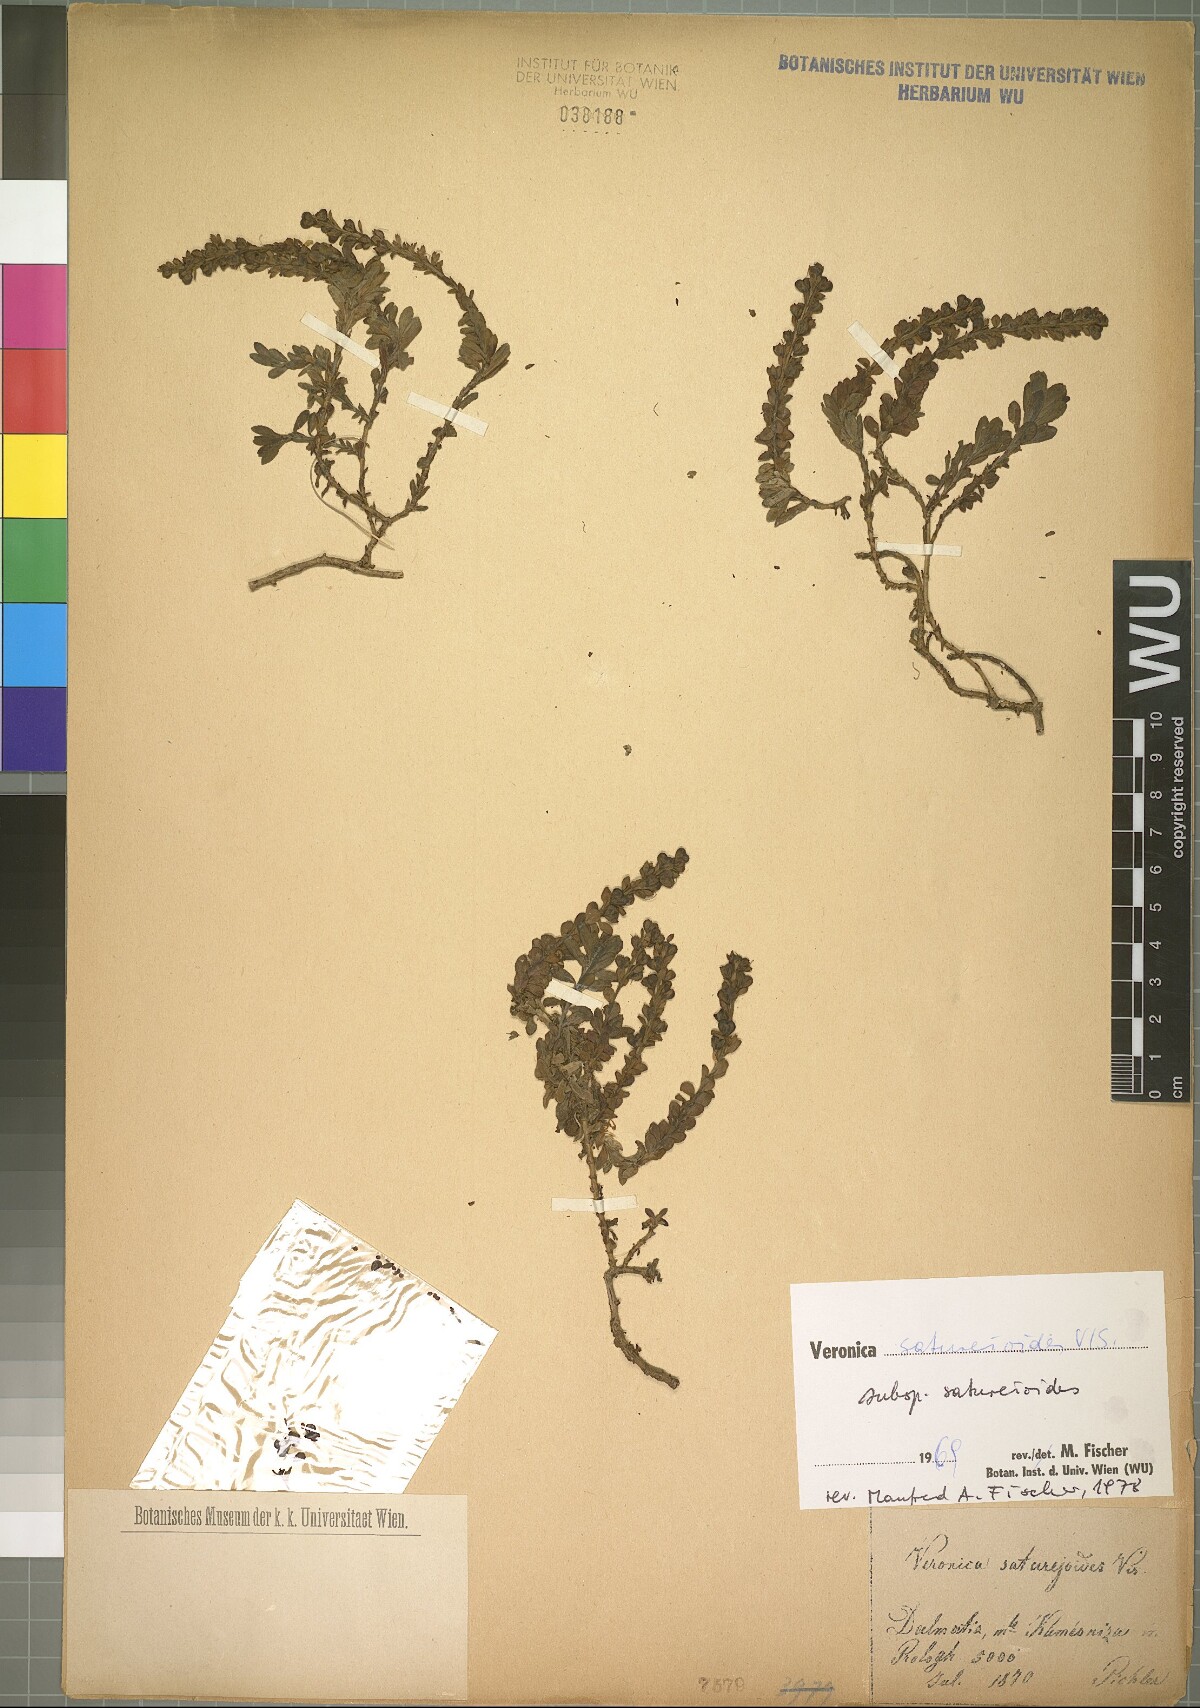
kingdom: Plantae
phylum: Tracheophyta
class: Magnoliopsida
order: Lamiales
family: Plantaginaceae
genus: Veronica
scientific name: Veronica saturejoides
